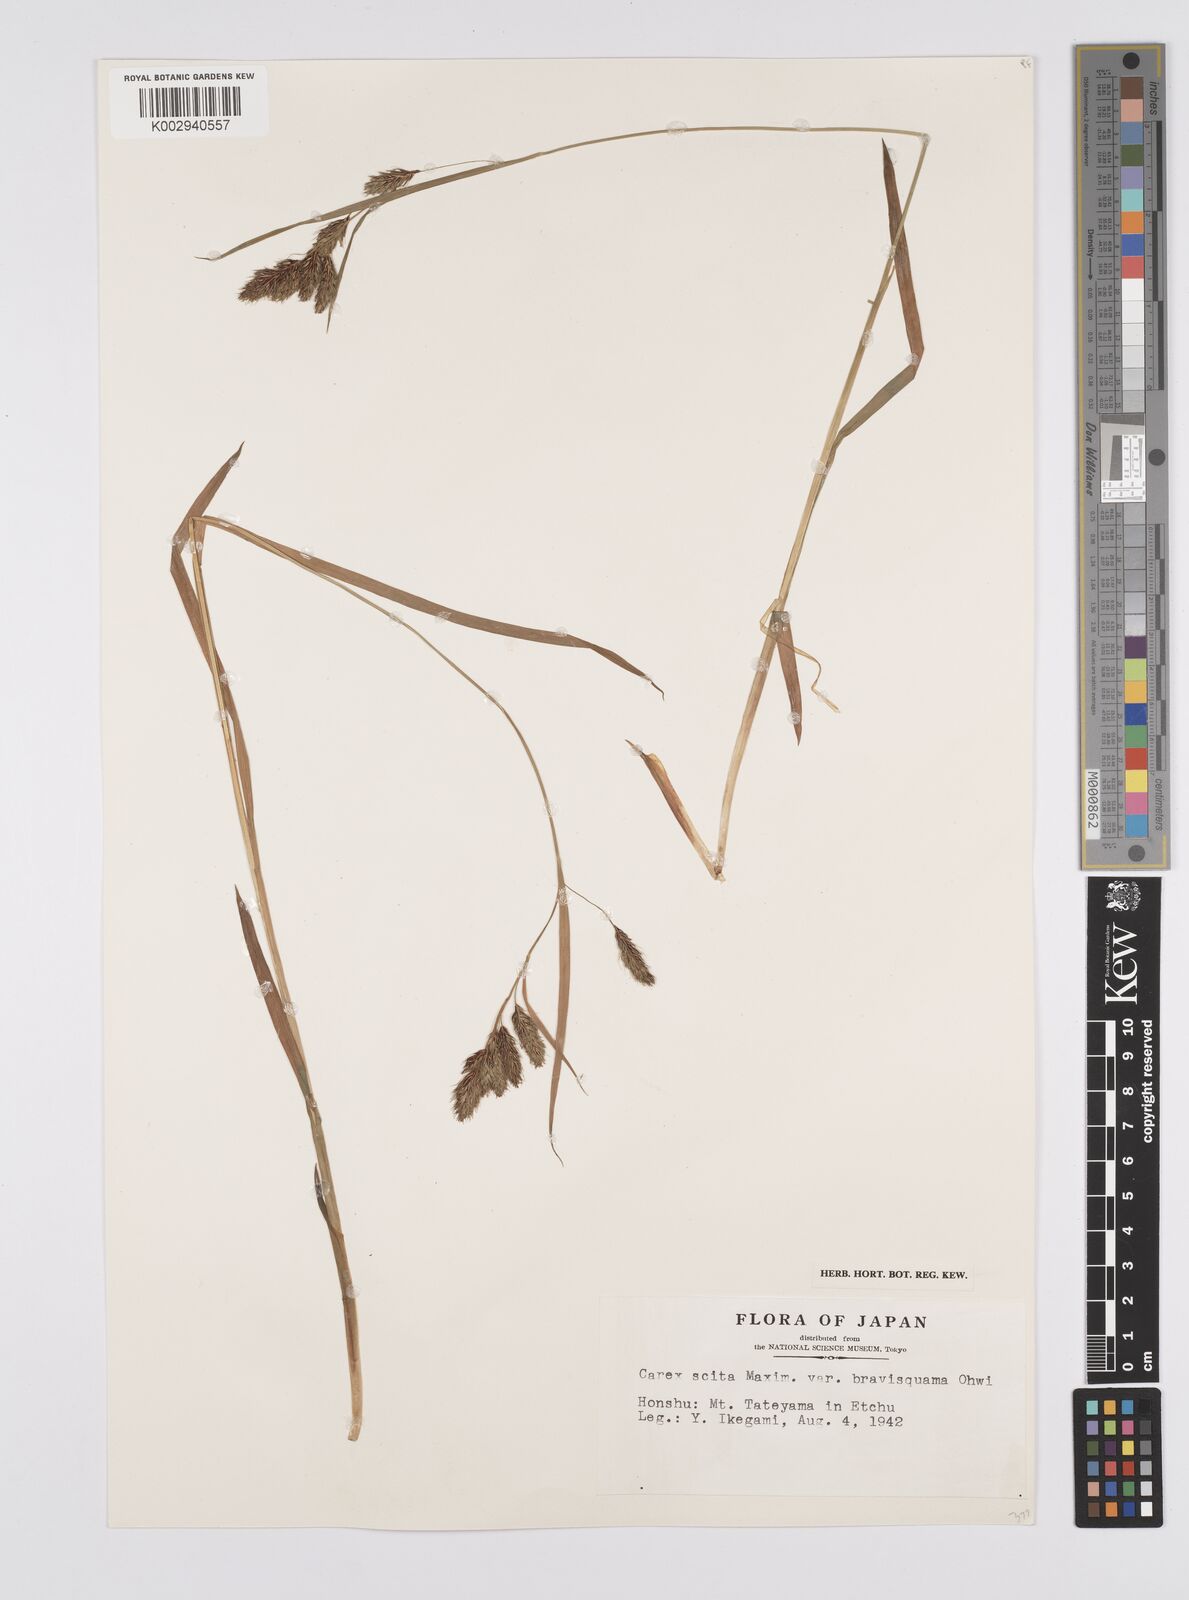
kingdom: Plantae
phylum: Tracheophyta
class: Liliopsida
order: Poales
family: Cyperaceae
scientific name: Cyperaceae
